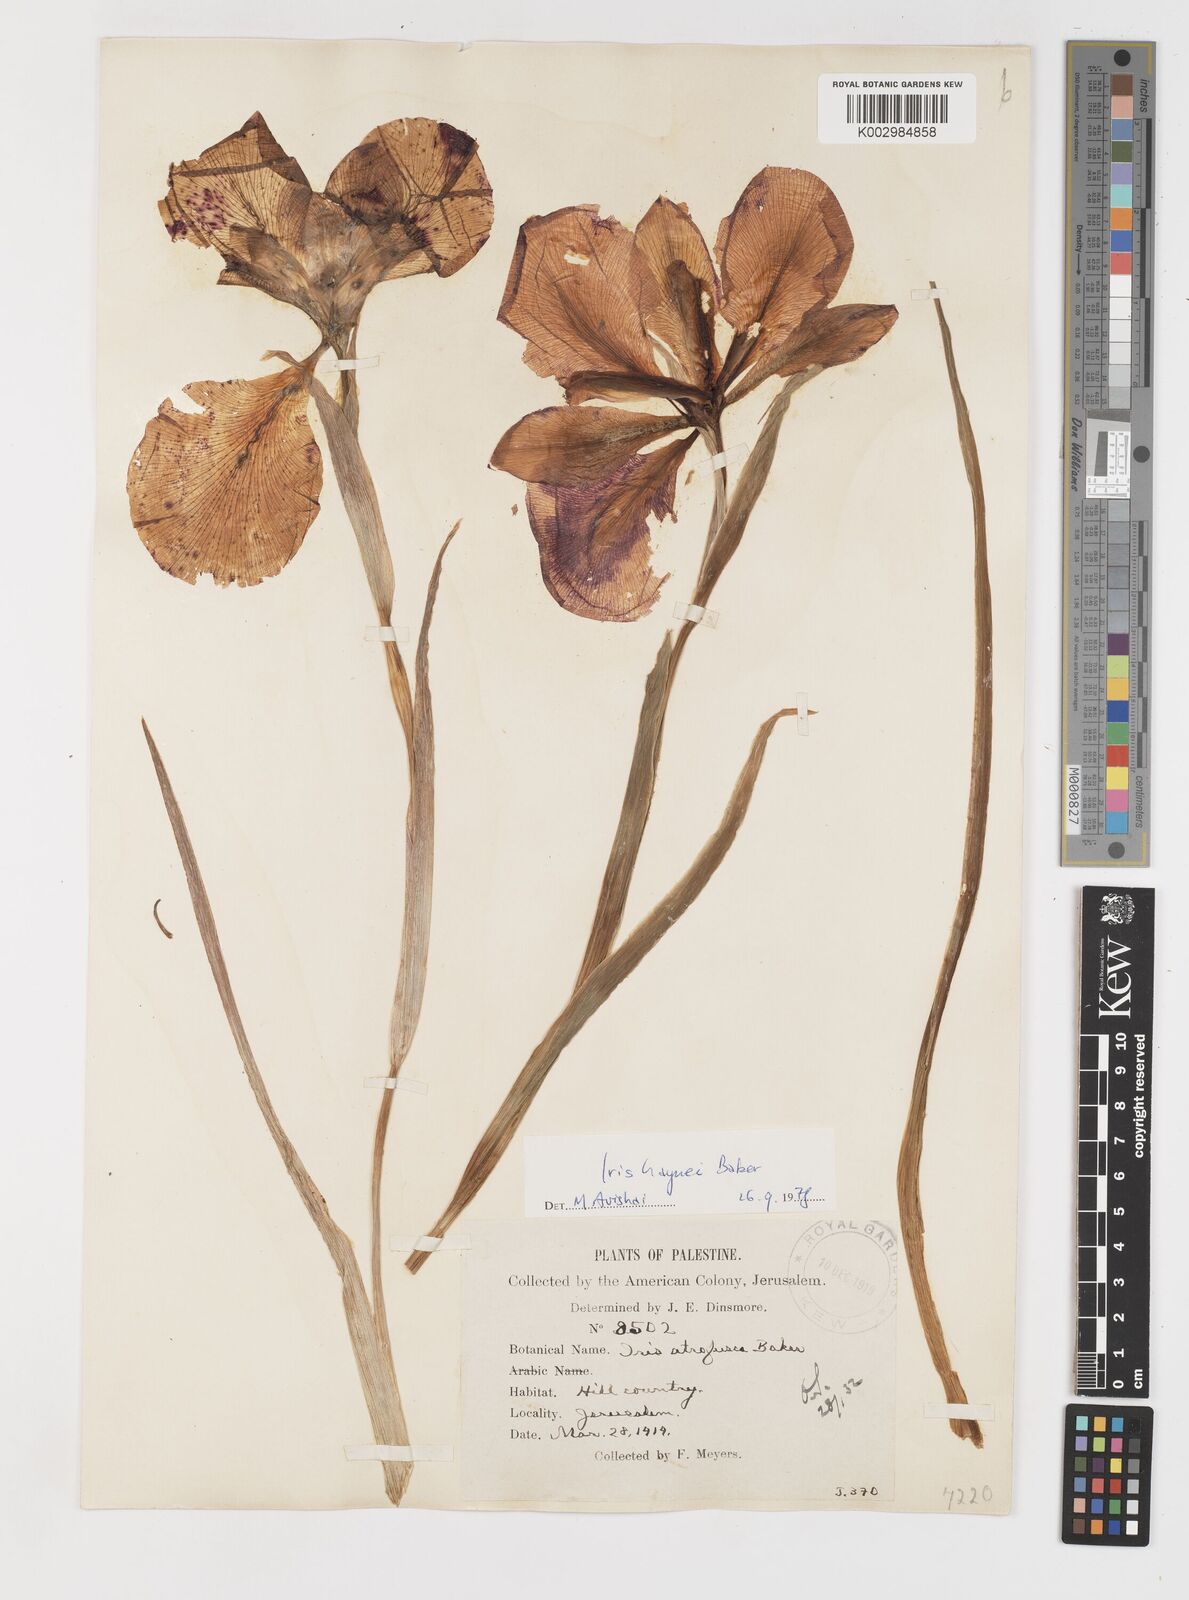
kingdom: Plantae
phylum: Tracheophyta
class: Liliopsida
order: Asparagales
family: Iridaceae
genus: Iris
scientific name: Iris atropurpurea
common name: Coastal iris
